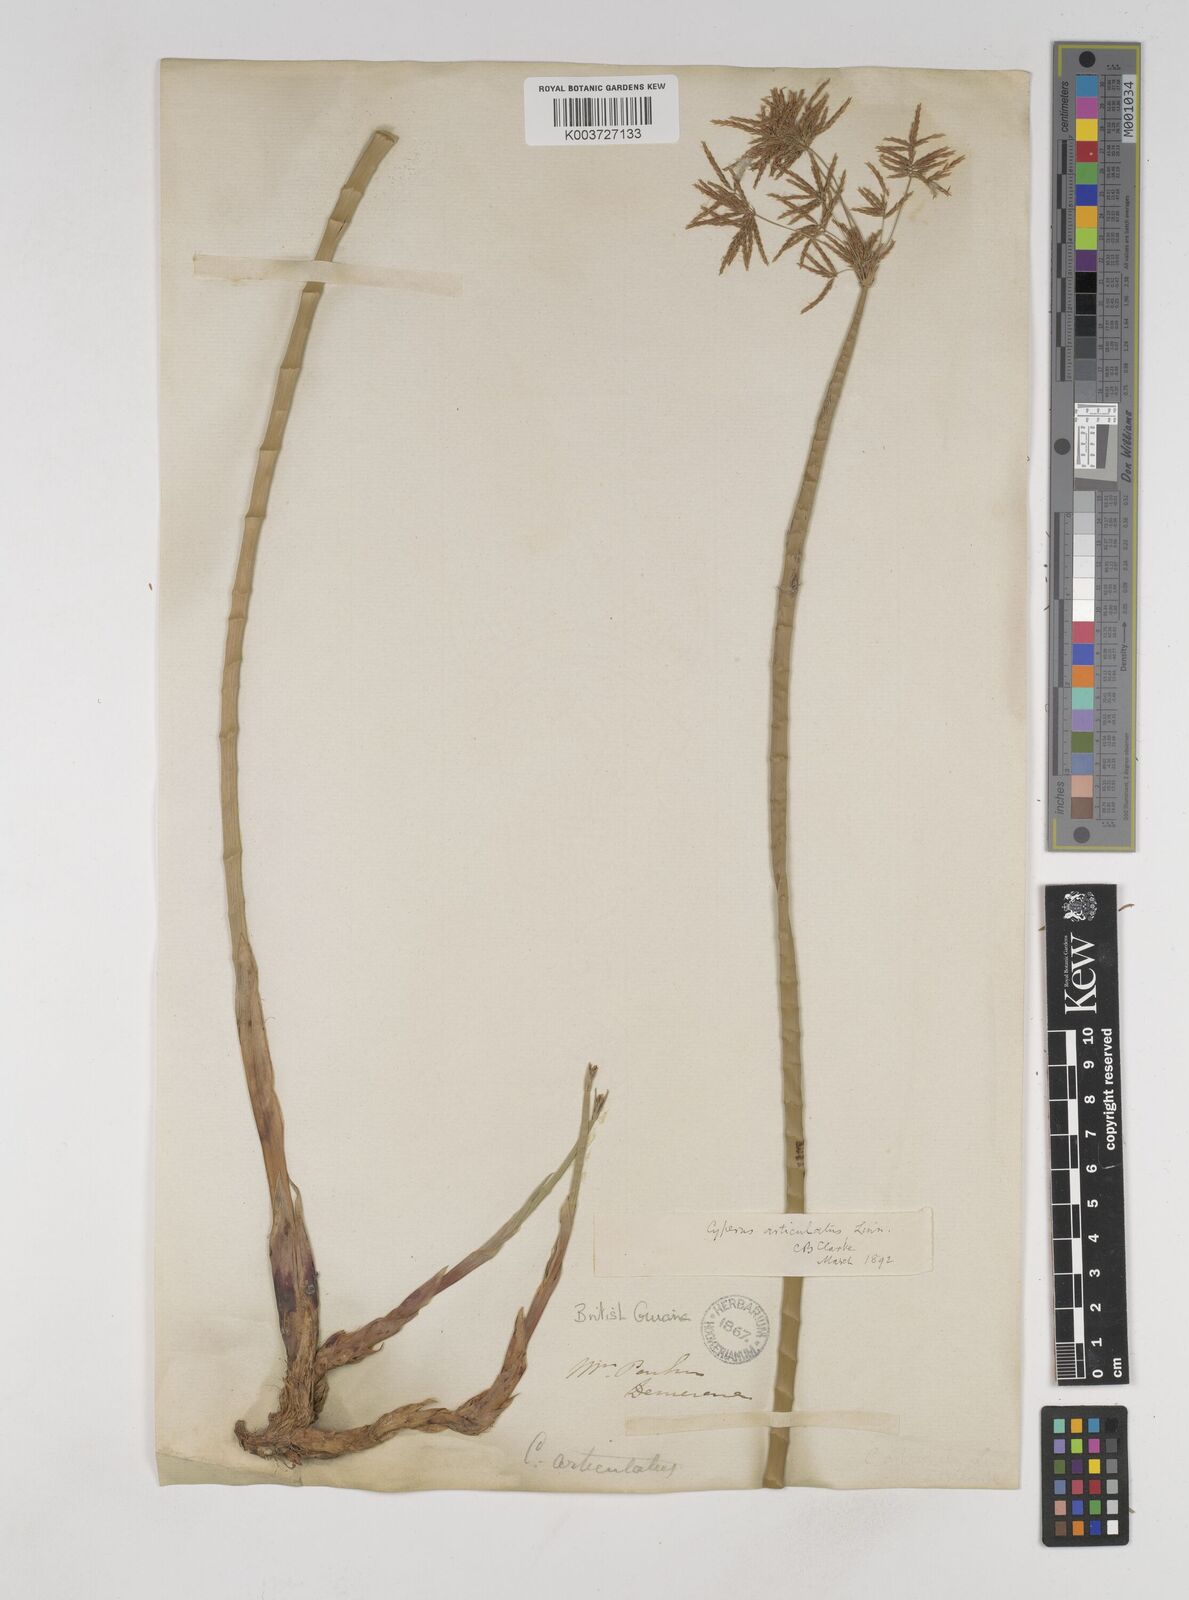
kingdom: Plantae
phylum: Tracheophyta
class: Liliopsida
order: Poales
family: Cyperaceae
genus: Cyperus
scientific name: Cyperus articulatus
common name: Jointed flatsedge
